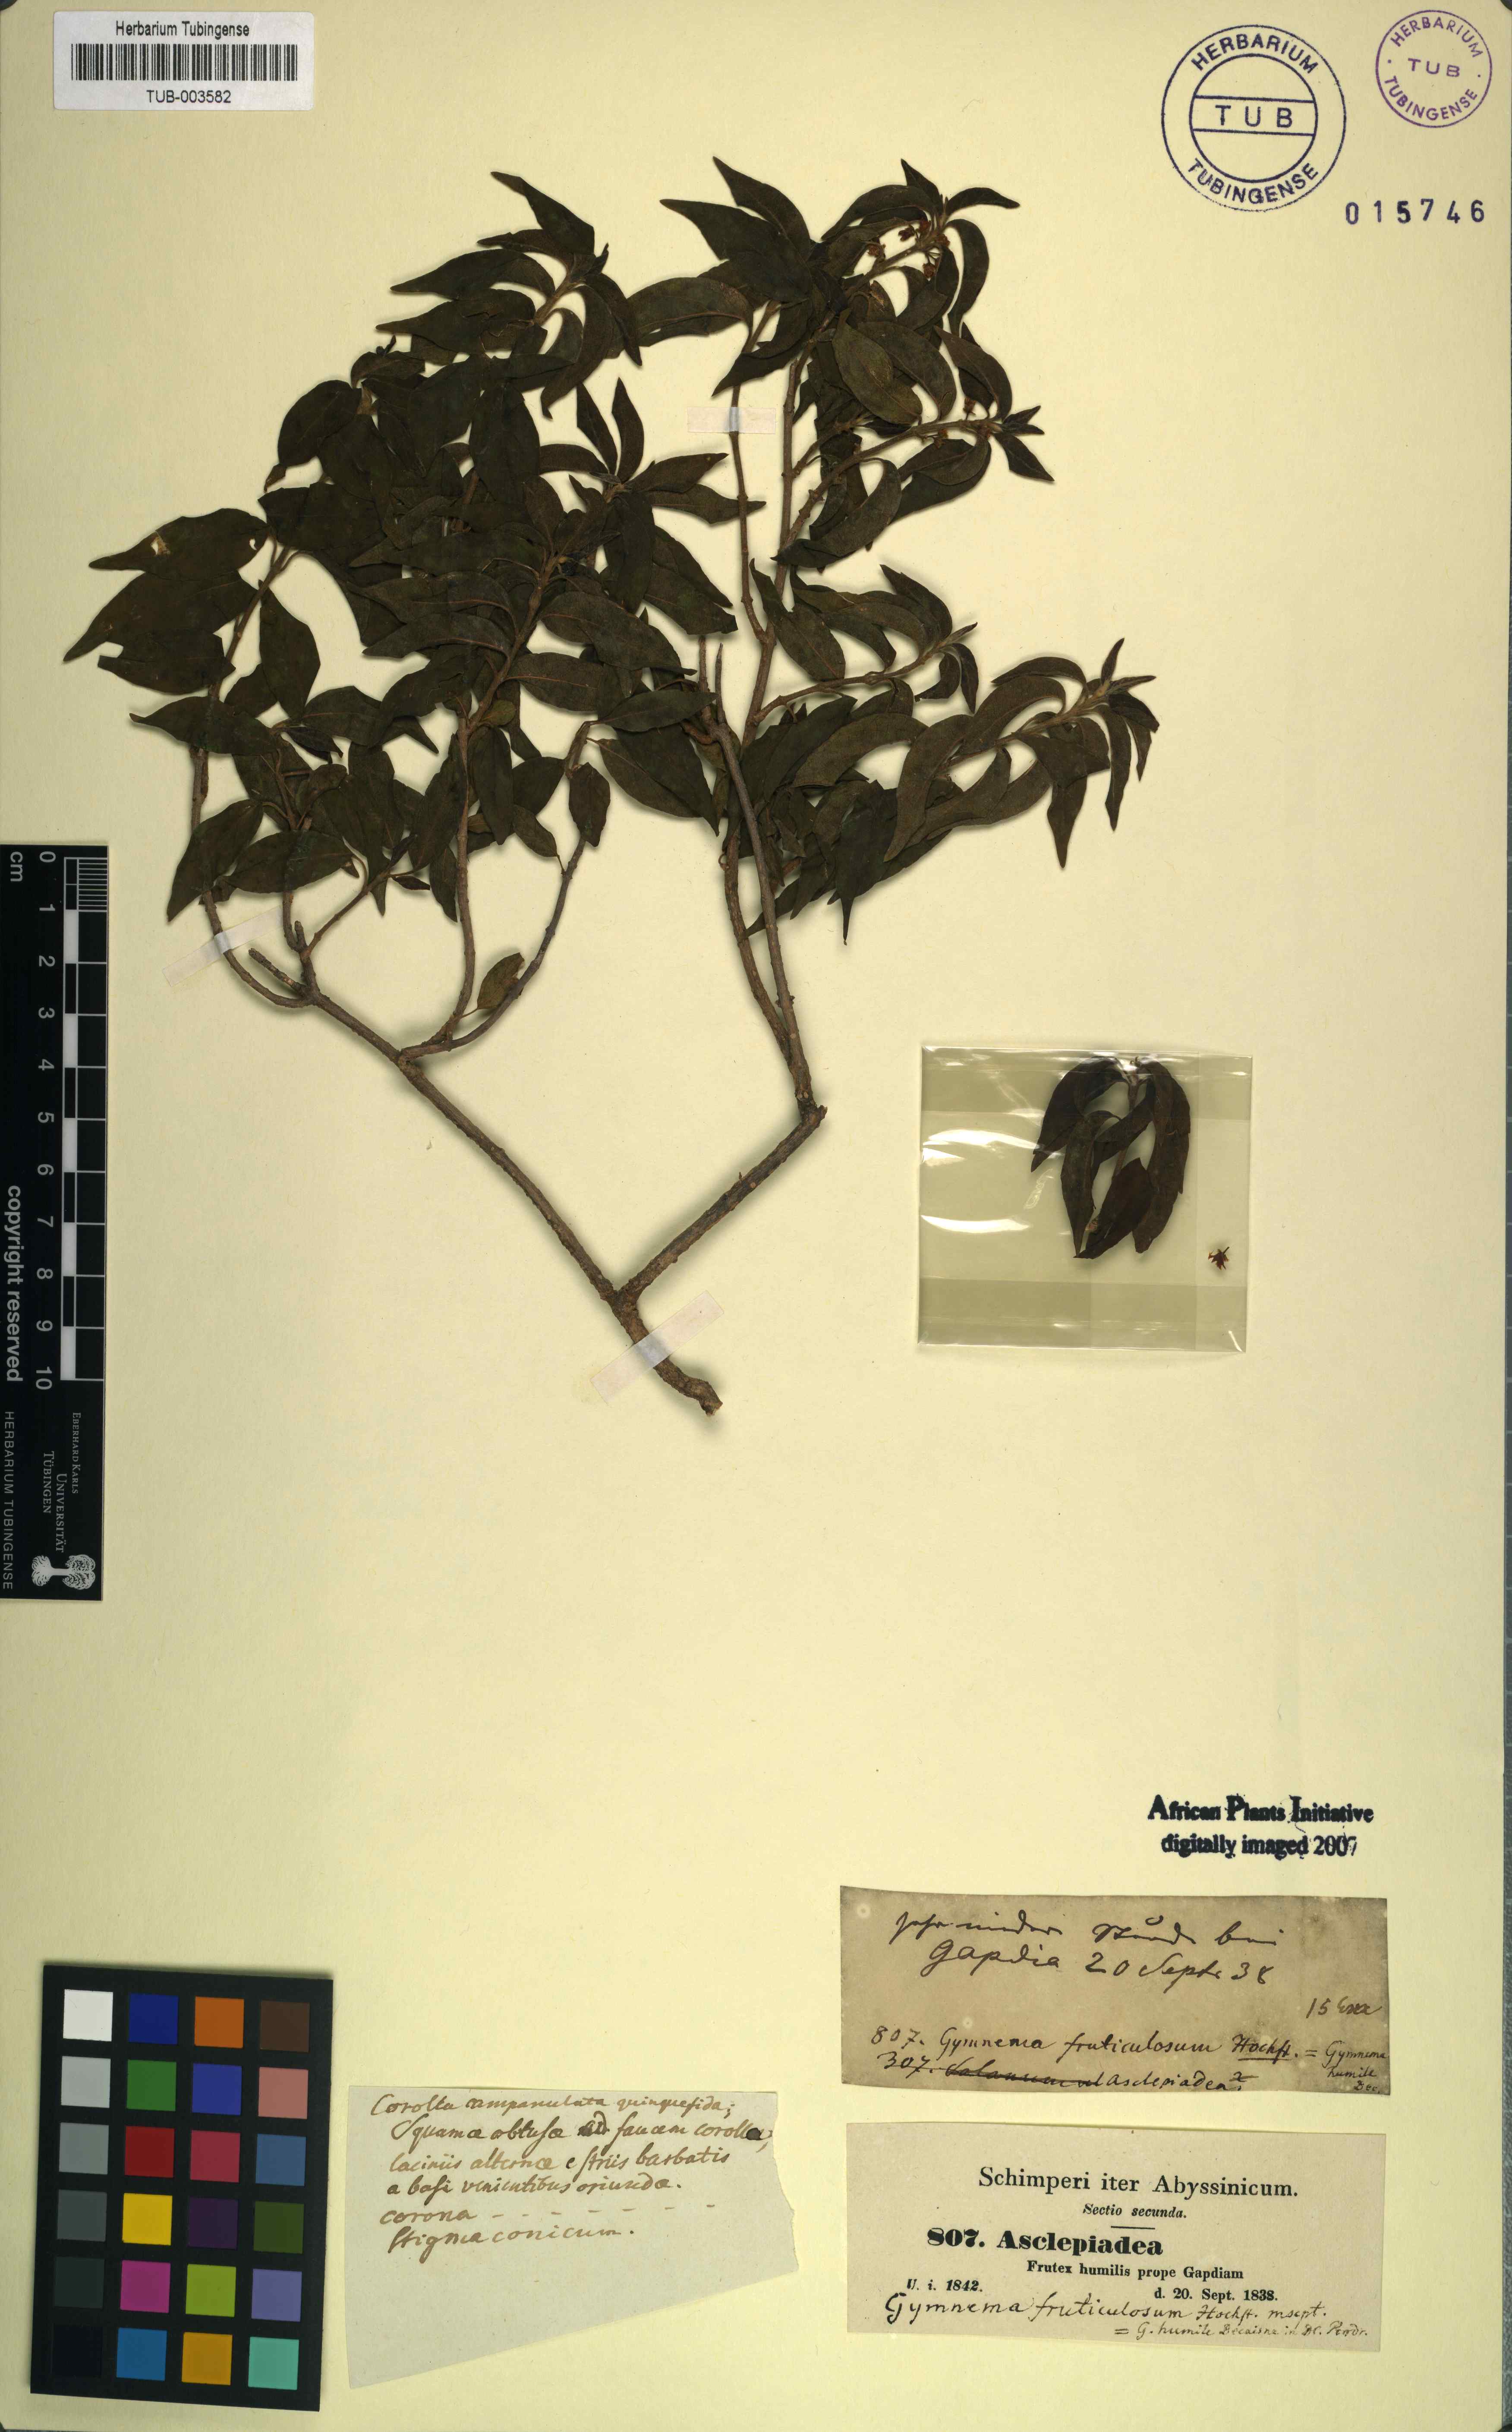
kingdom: Plantae
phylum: Tracheophyta
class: Magnoliopsida
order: Gentianales
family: Apocynaceae
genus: Gymnema
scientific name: Gymnema sylvestre
